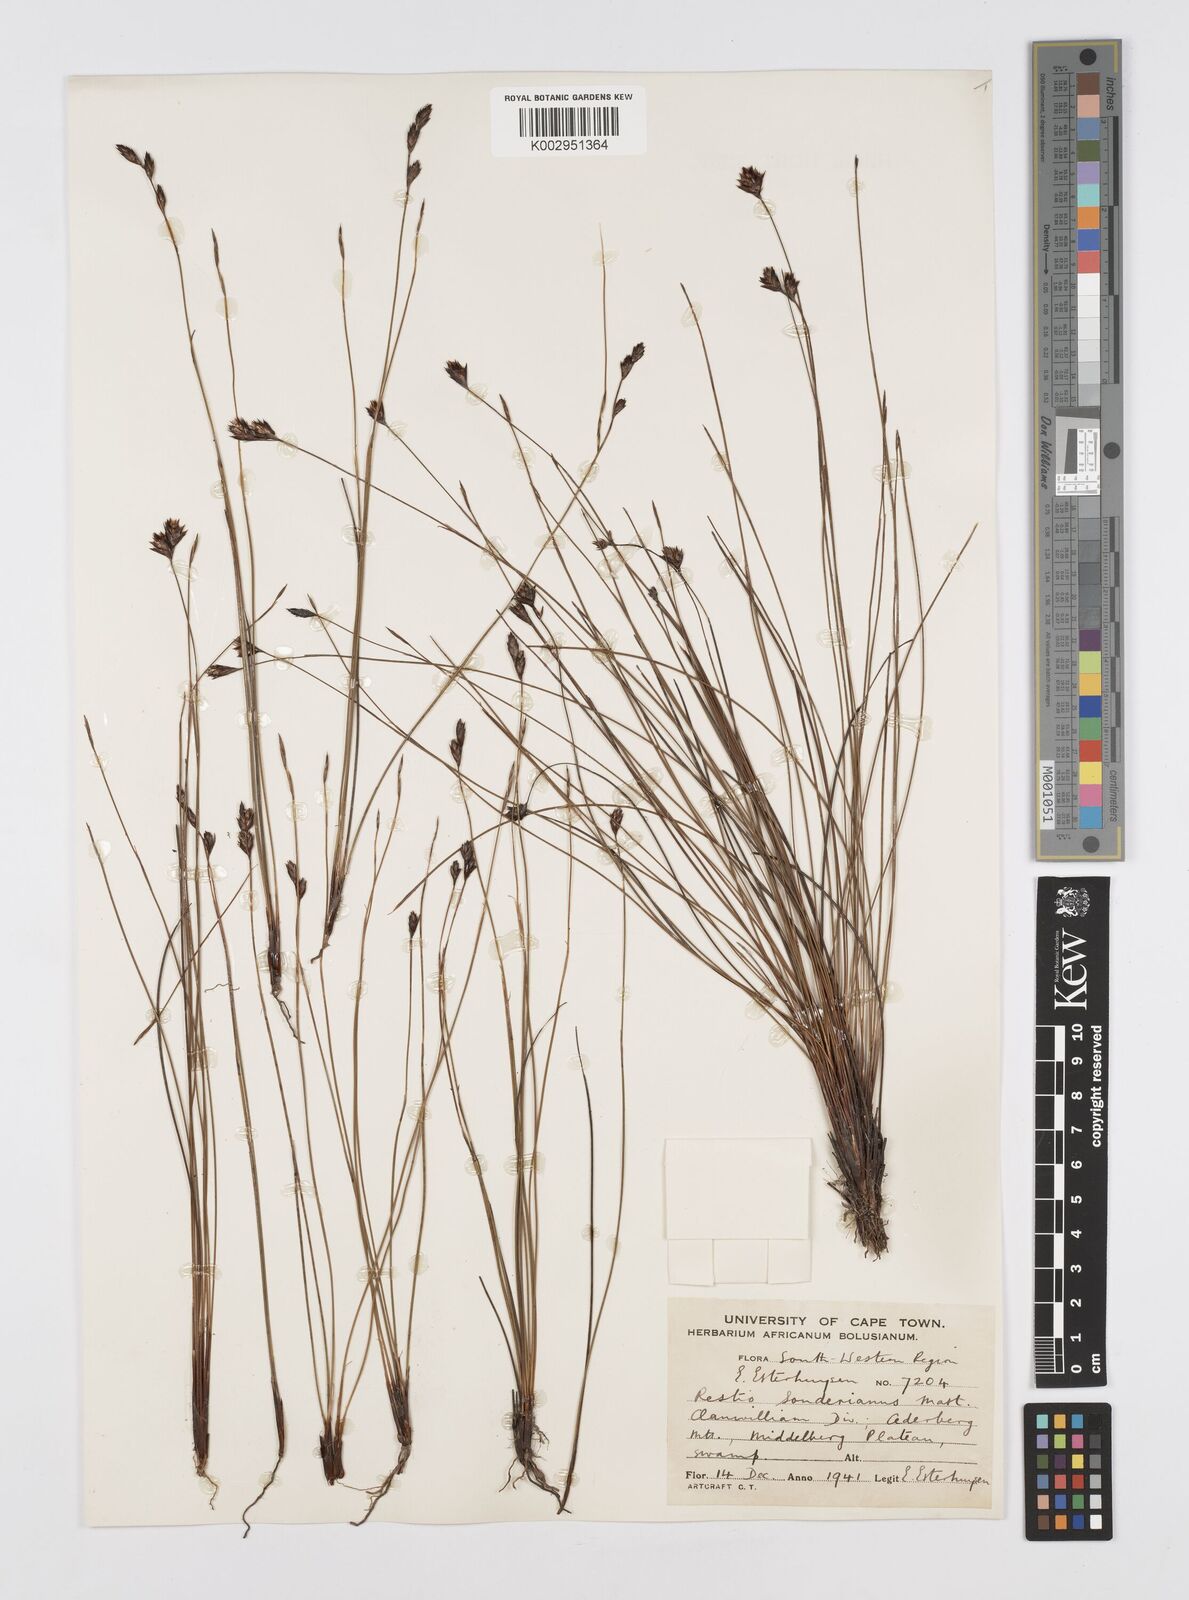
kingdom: Plantae
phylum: Tracheophyta
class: Liliopsida
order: Poales
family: Restionaceae
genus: Restio
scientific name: Restio pedicellatus
